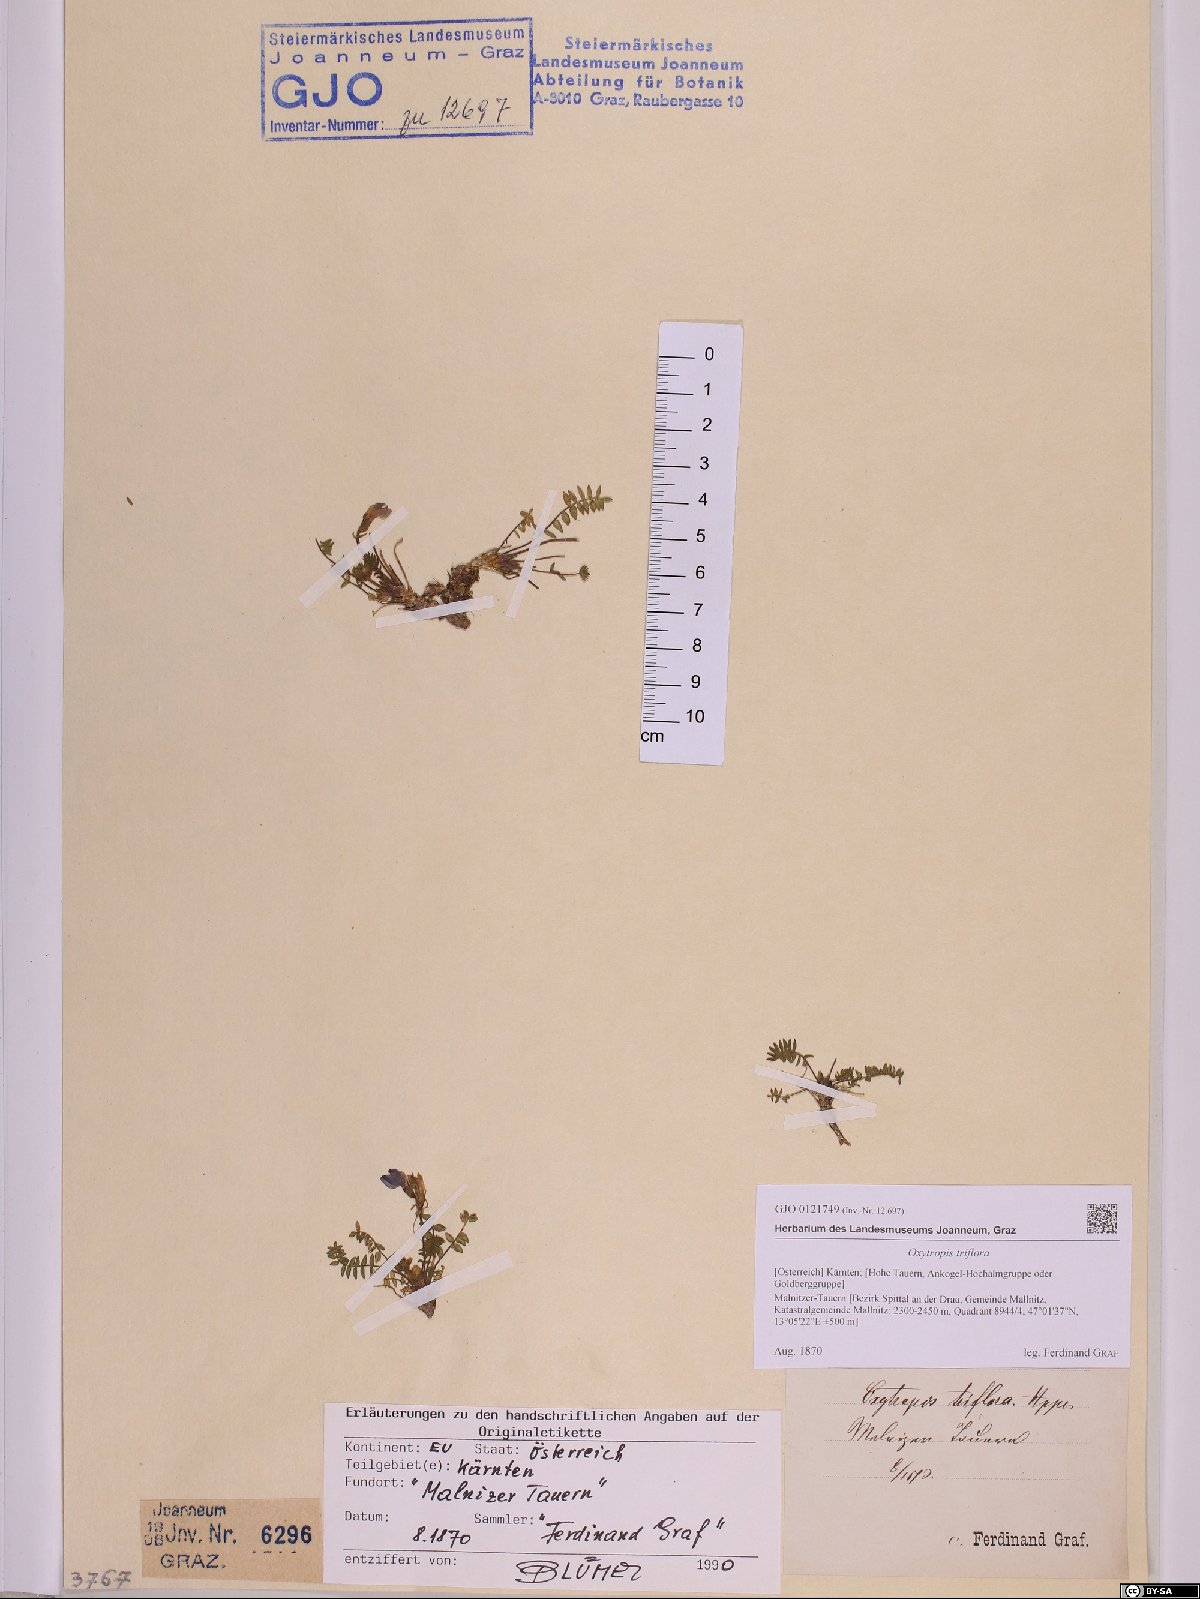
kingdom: Plantae
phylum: Tracheophyta
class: Magnoliopsida
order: Fabales
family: Fabaceae
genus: Oxytropis
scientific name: Oxytropis triflora
